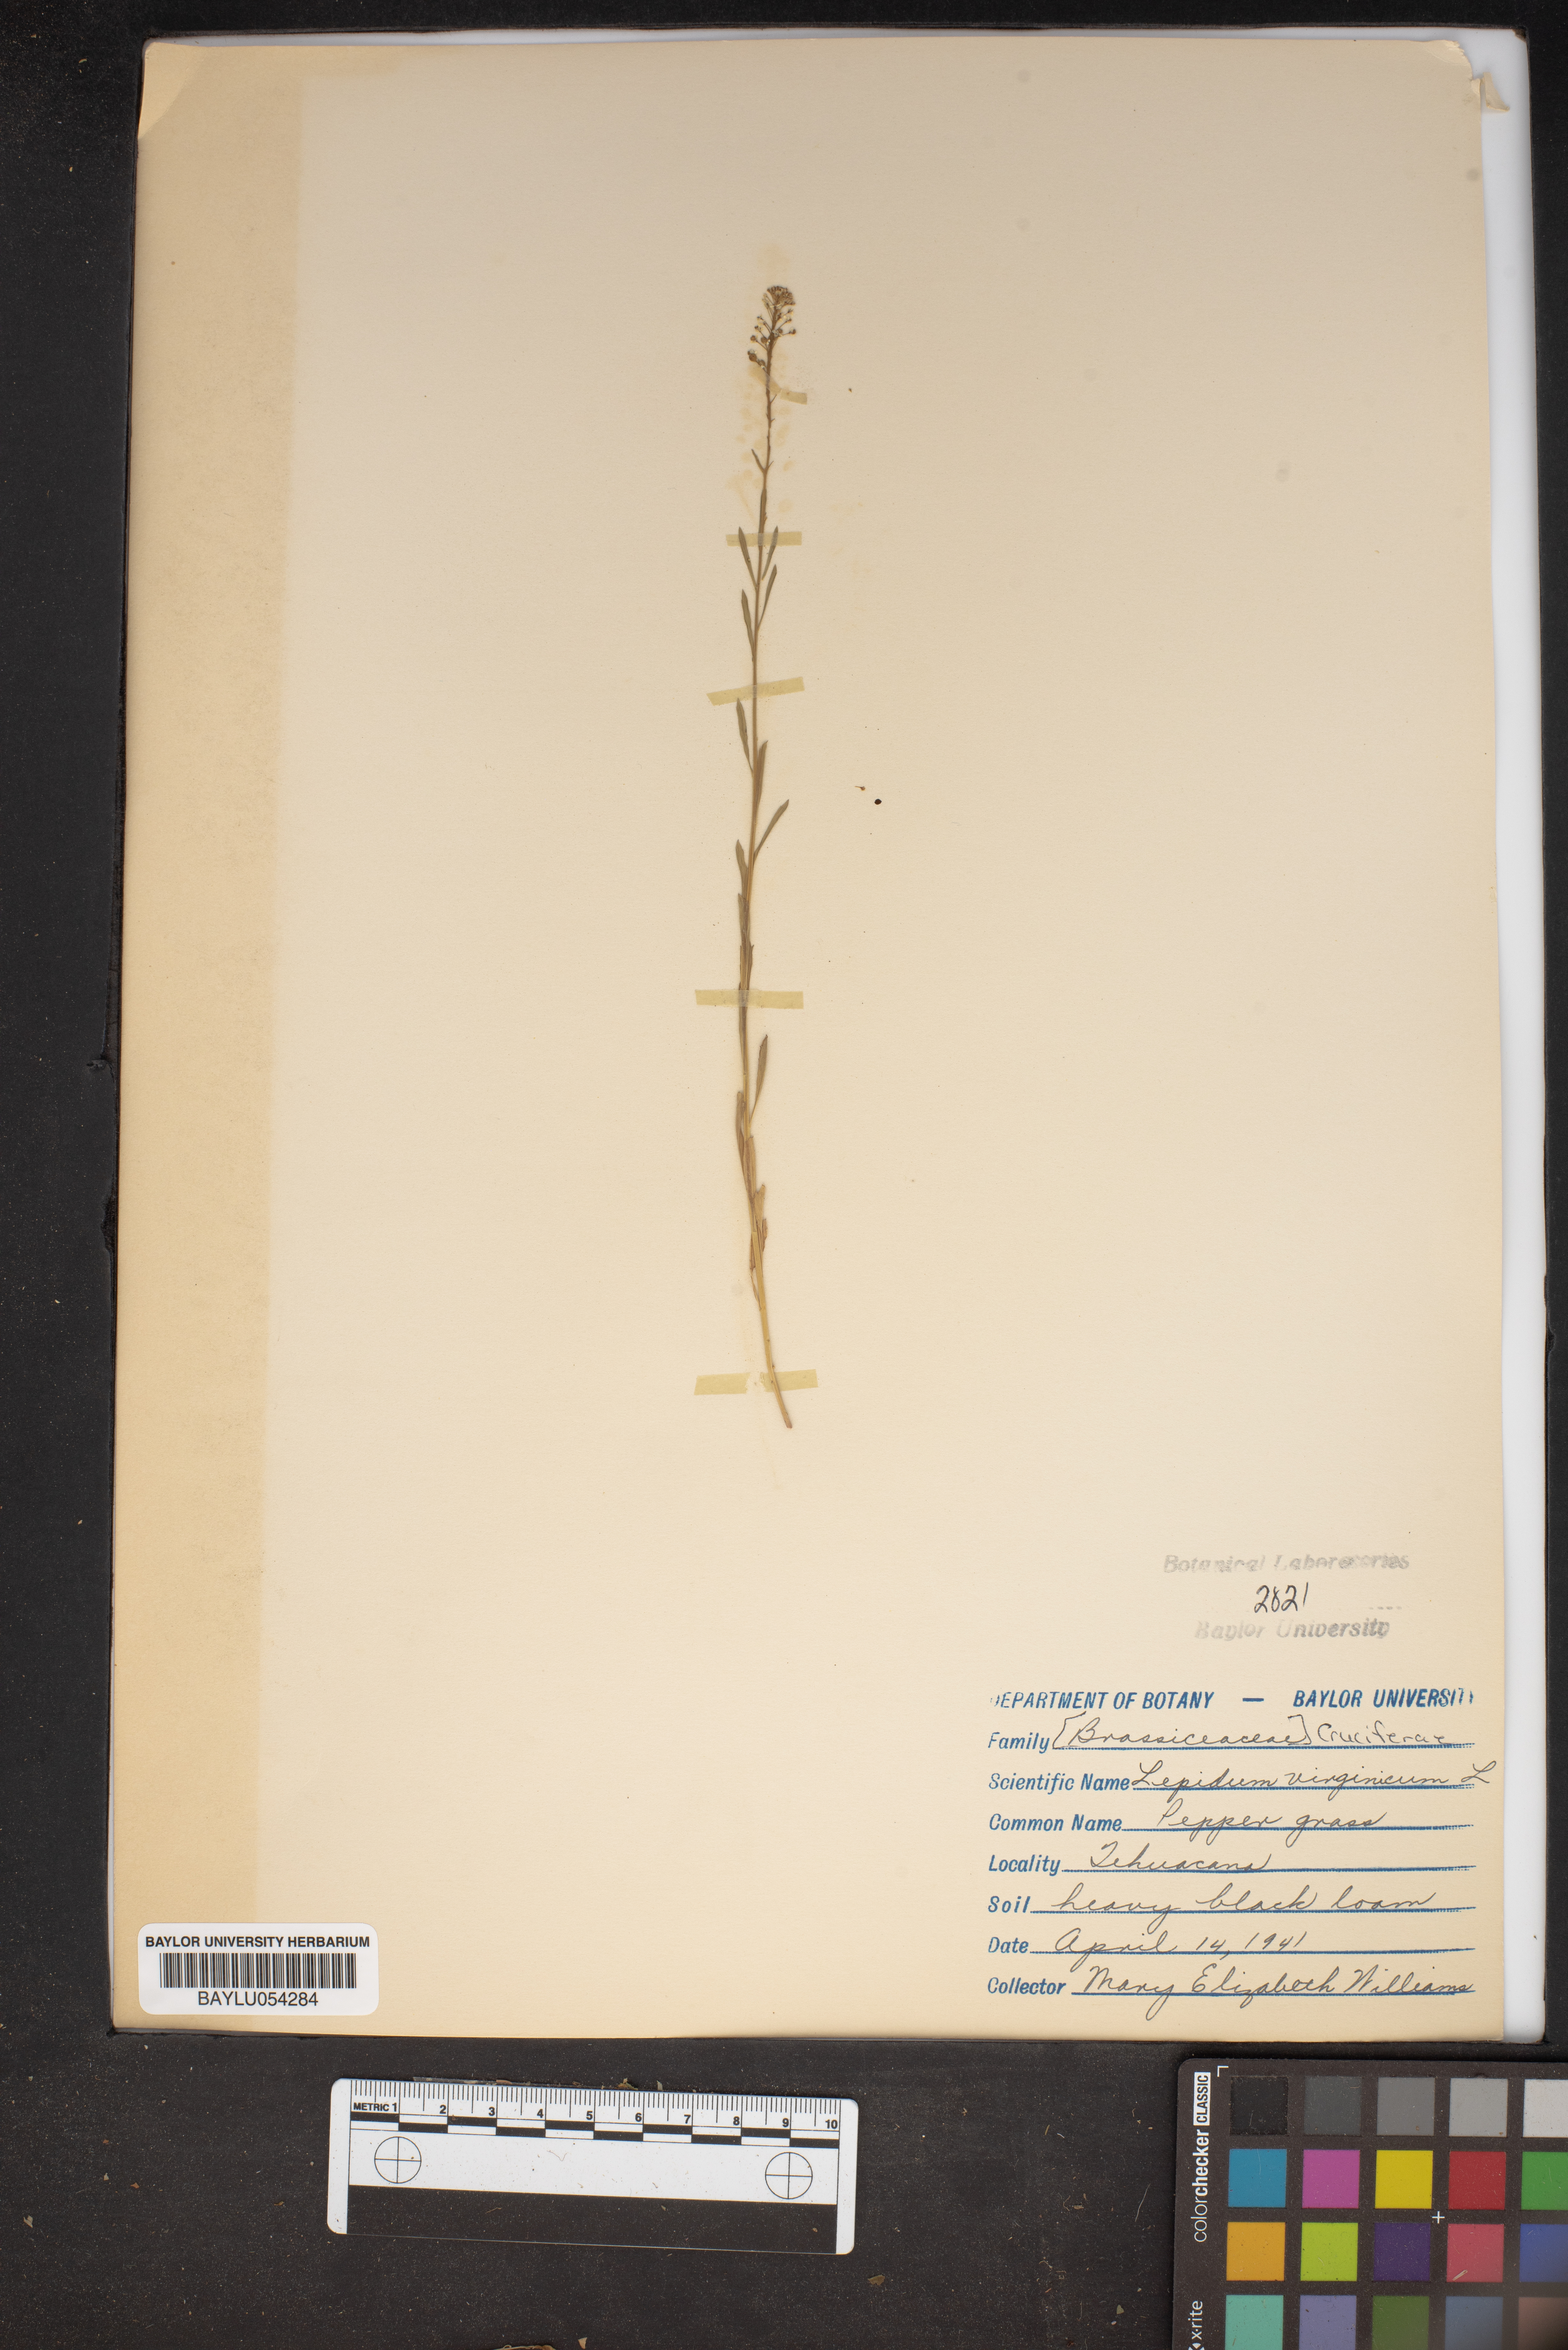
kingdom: Plantae
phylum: Tracheophyta
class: Magnoliopsida
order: Brassicales
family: Brassicaceae
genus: Lepidium
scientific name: Lepidium virginicum
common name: Least pepperwort
